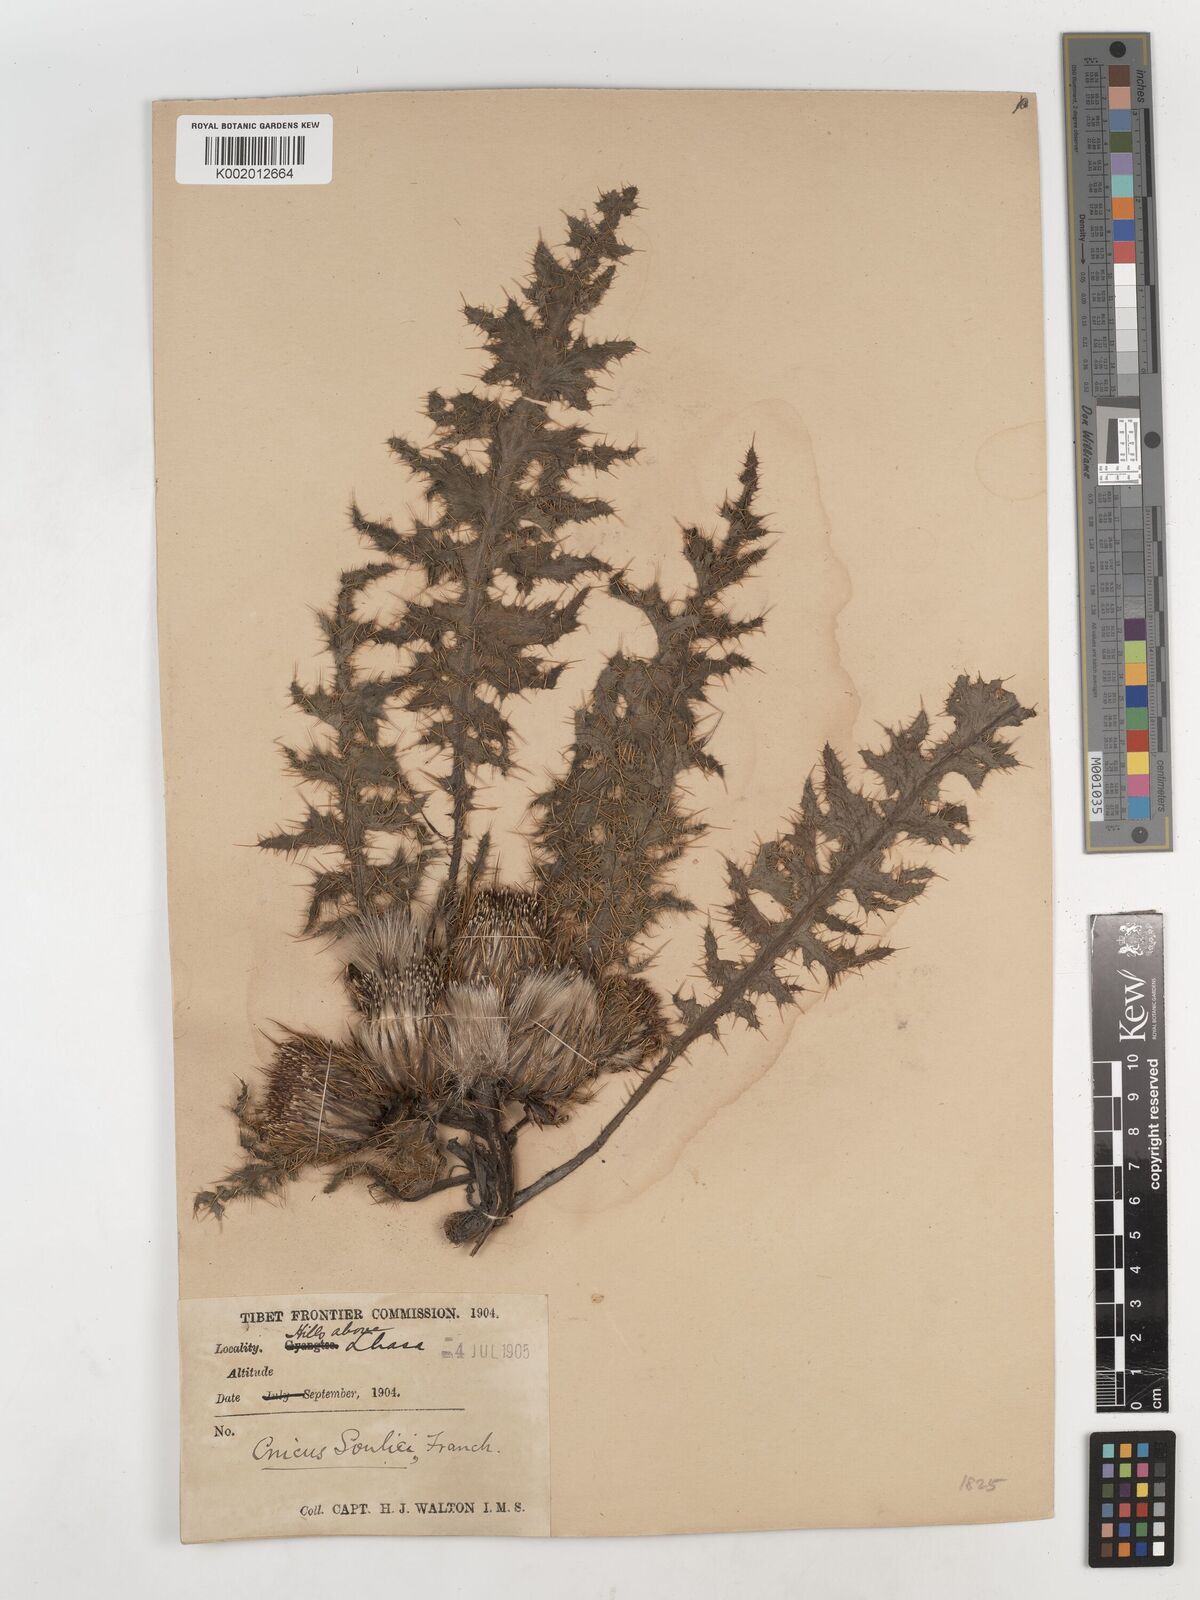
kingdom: Plantae
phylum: Tracheophyta
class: Magnoliopsida
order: Asterales
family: Asteraceae
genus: Cirsium
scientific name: Cirsium souliei
